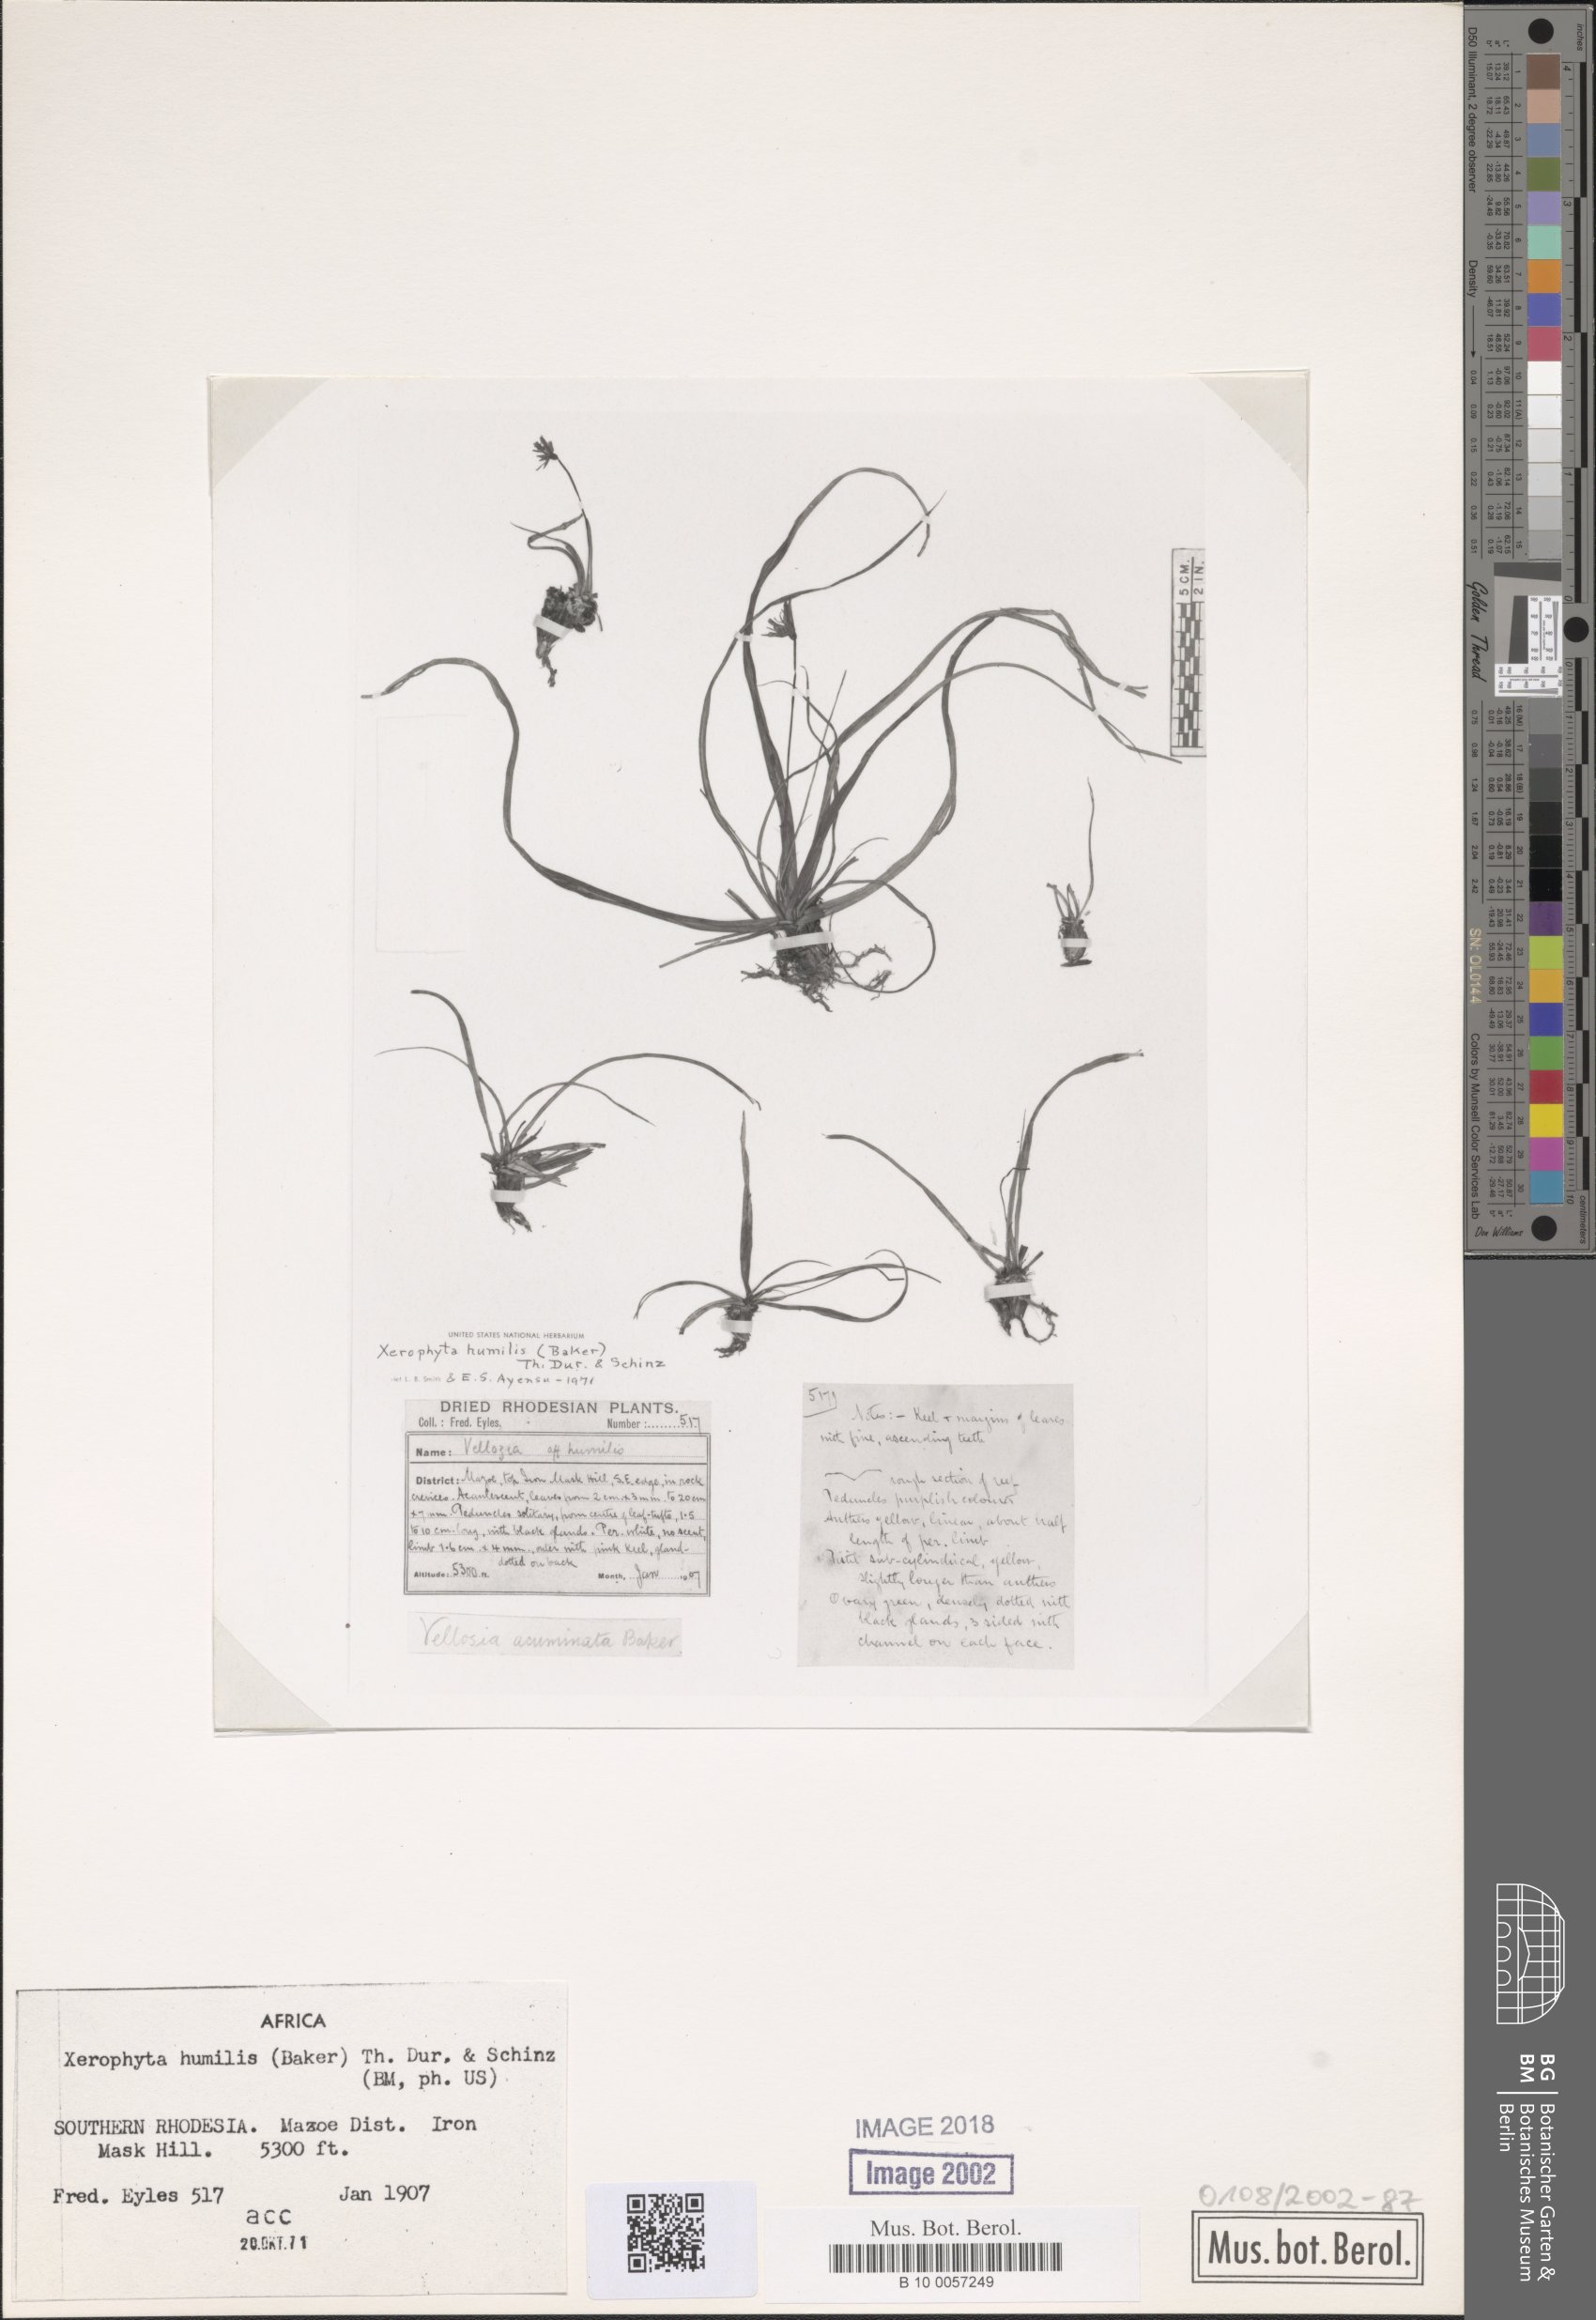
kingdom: Plantae
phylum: Tracheophyta
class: Liliopsida
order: Pandanales
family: Velloziaceae
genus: Xerophyta
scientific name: Xerophyta humilis
